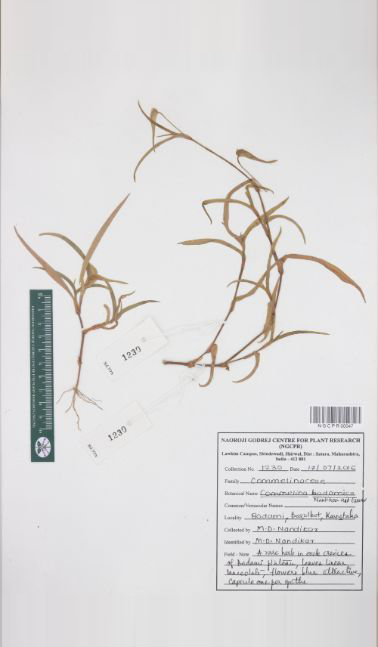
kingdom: Plantae
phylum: Tracheophyta
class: Liliopsida
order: Commelinales
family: Commelinaceae
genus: Commelina
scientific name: Commelina badamica
